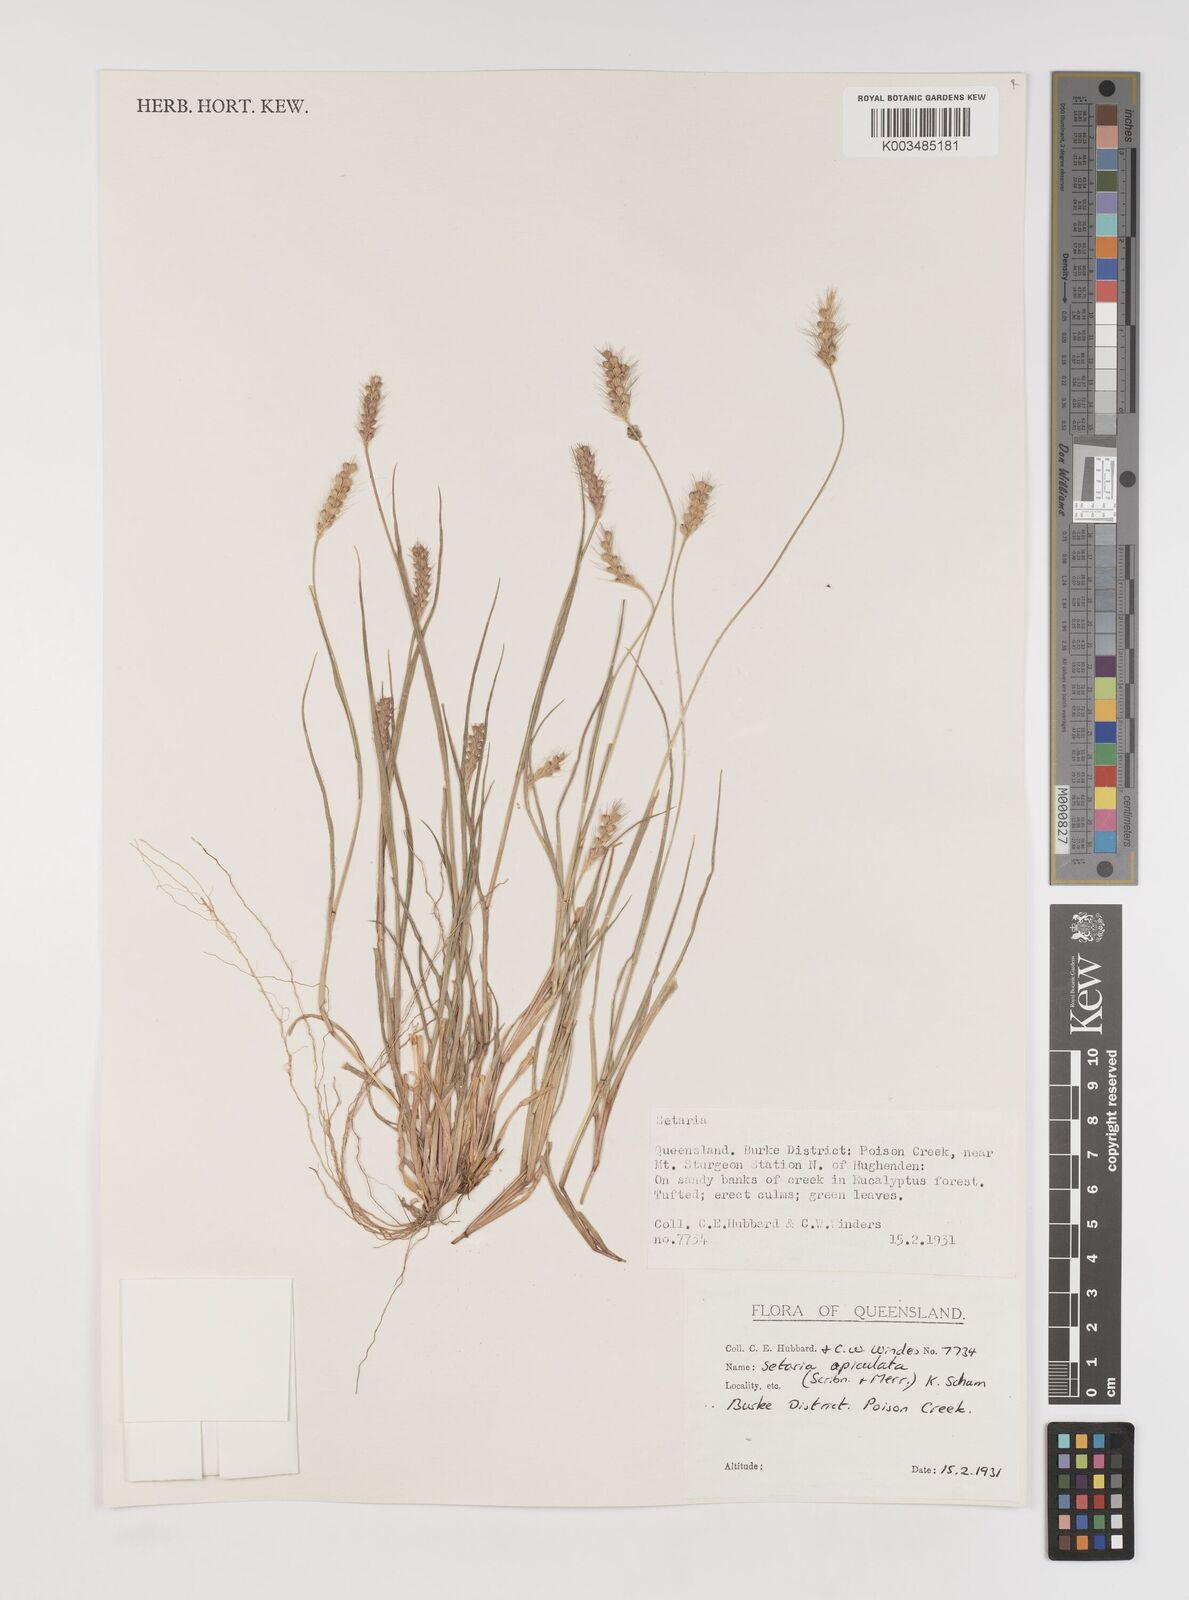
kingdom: Plantae
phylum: Tracheophyta
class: Liliopsida
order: Poales
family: Poaceae
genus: Setaria
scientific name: Setaria apiculata
